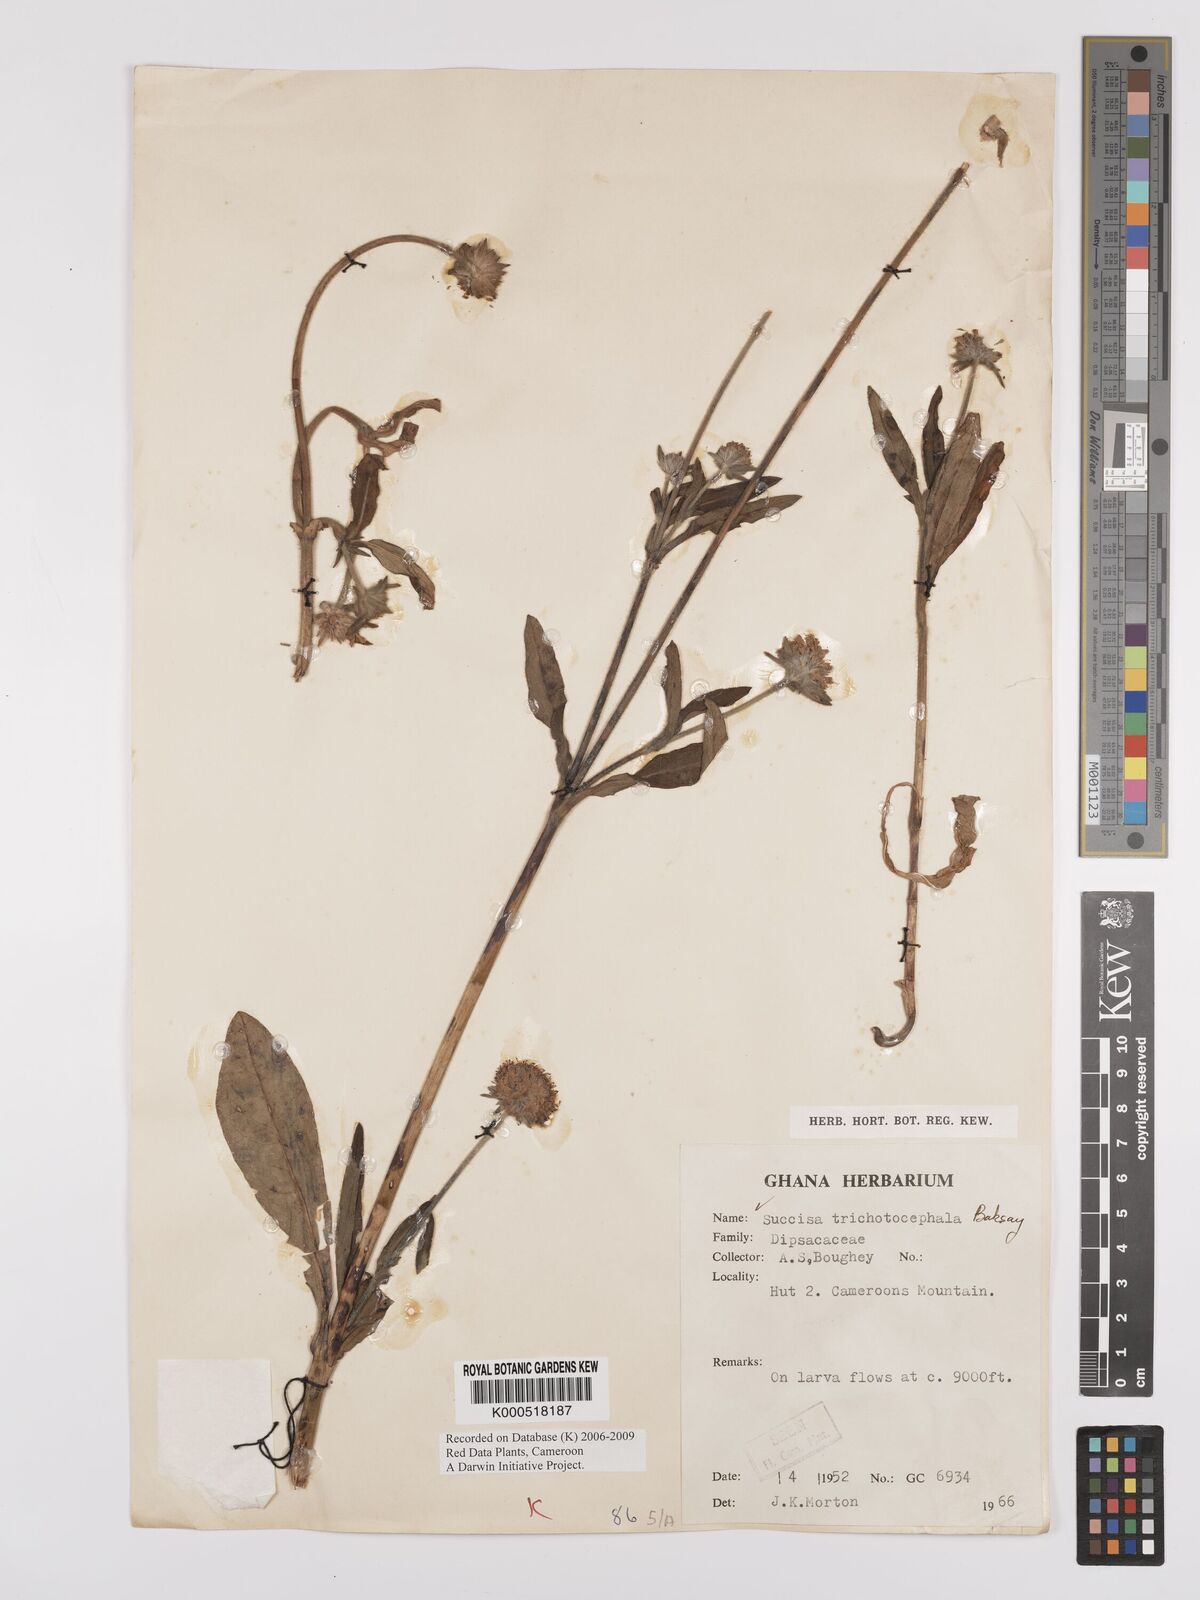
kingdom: Plantae
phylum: Tracheophyta
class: Magnoliopsida
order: Dipsacales
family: Caprifoliaceae
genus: Succisa
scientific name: Succisa trichotocephala
